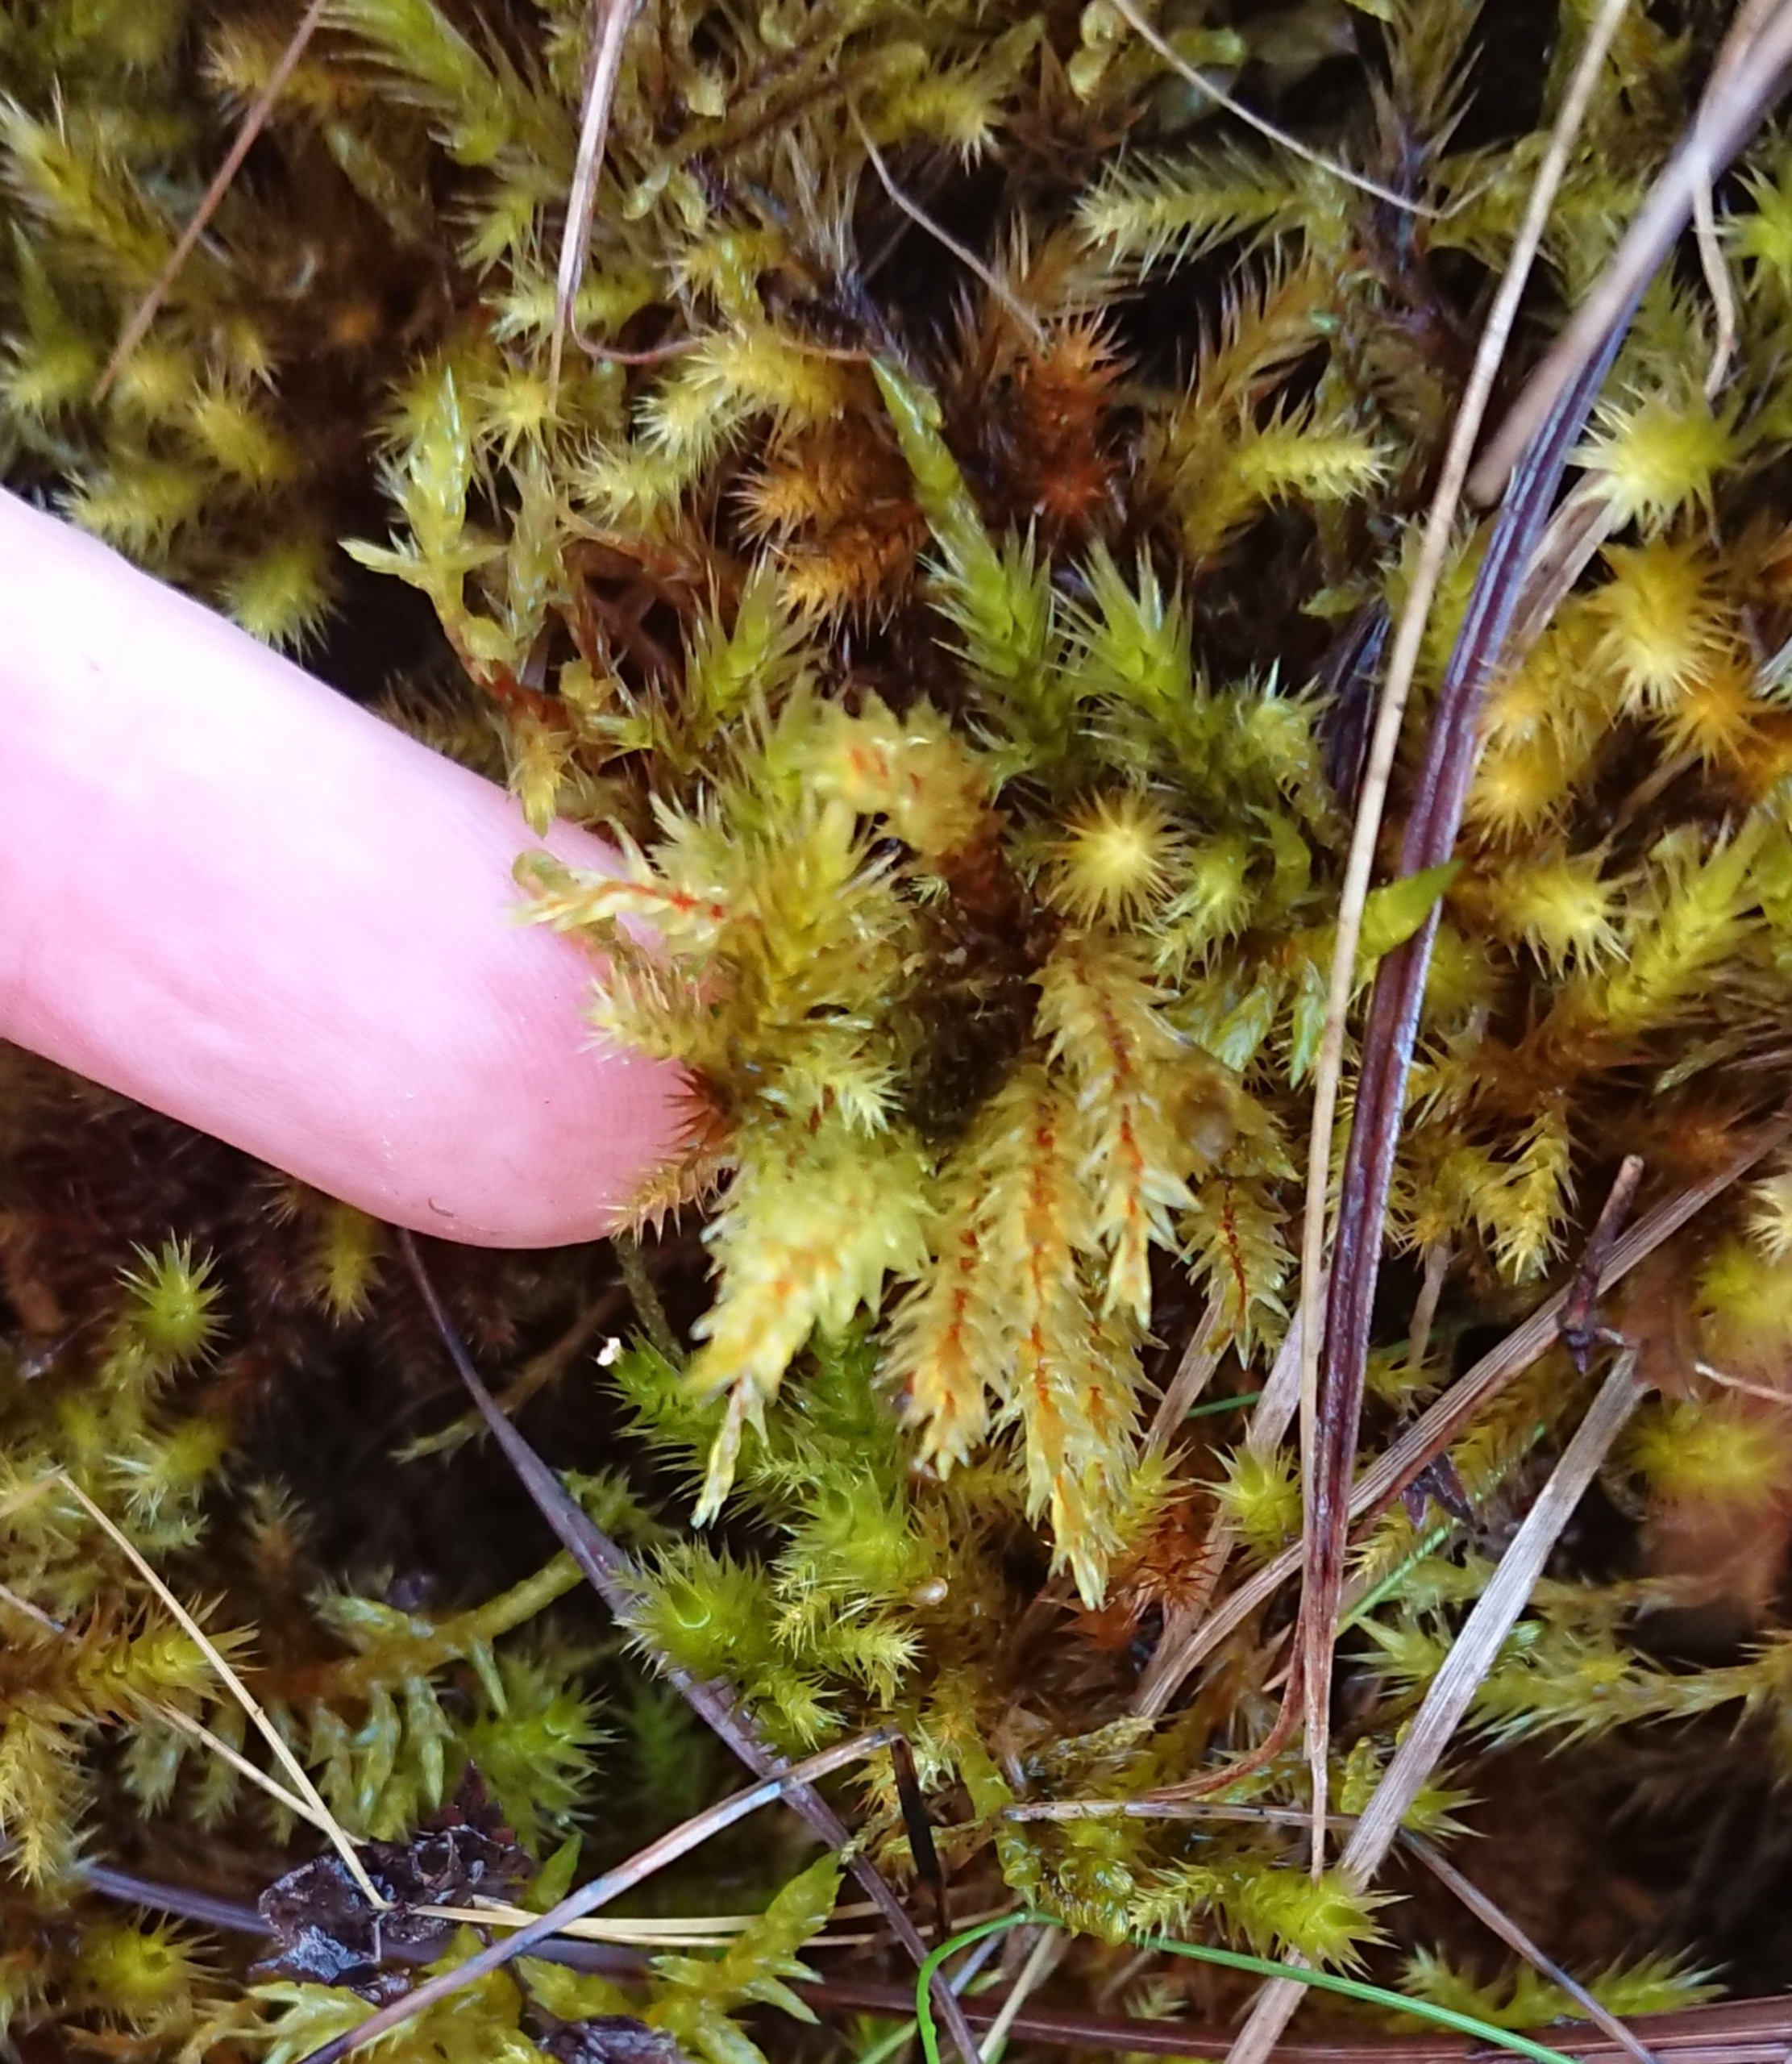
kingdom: Plantae
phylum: Bryophyta
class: Bryopsida
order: Hypnales
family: Climaciaceae
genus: Climacium
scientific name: Climacium dendroides
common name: Stor engkost
